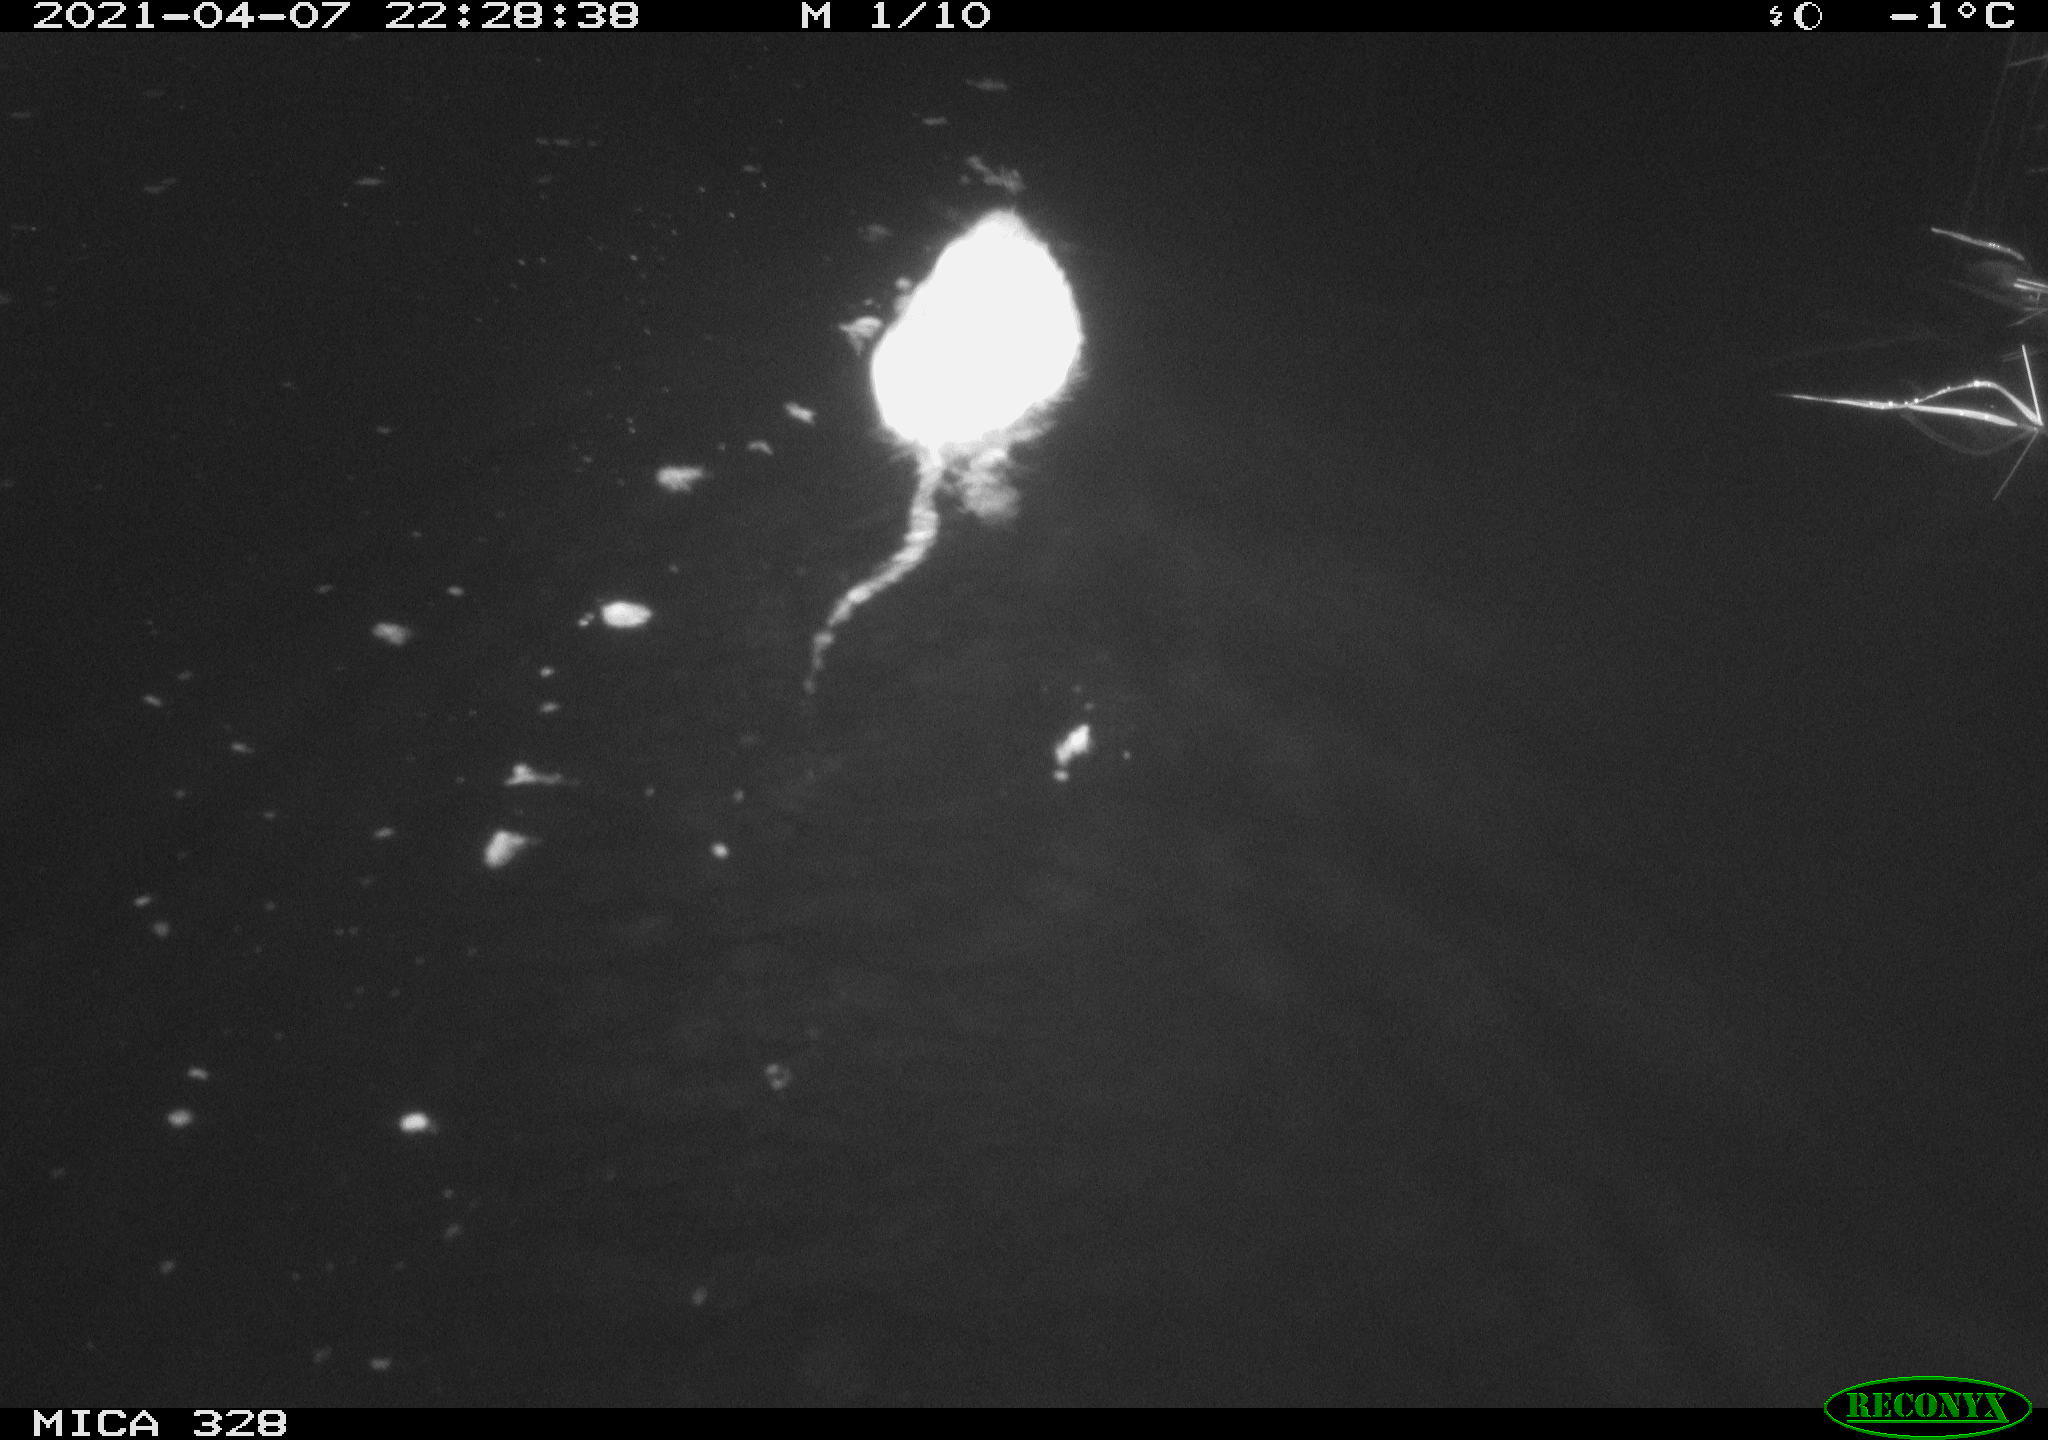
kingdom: Animalia
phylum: Chordata
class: Mammalia
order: Rodentia
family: Cricetidae
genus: Ondatra
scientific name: Ondatra zibethicus
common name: Muskrat
